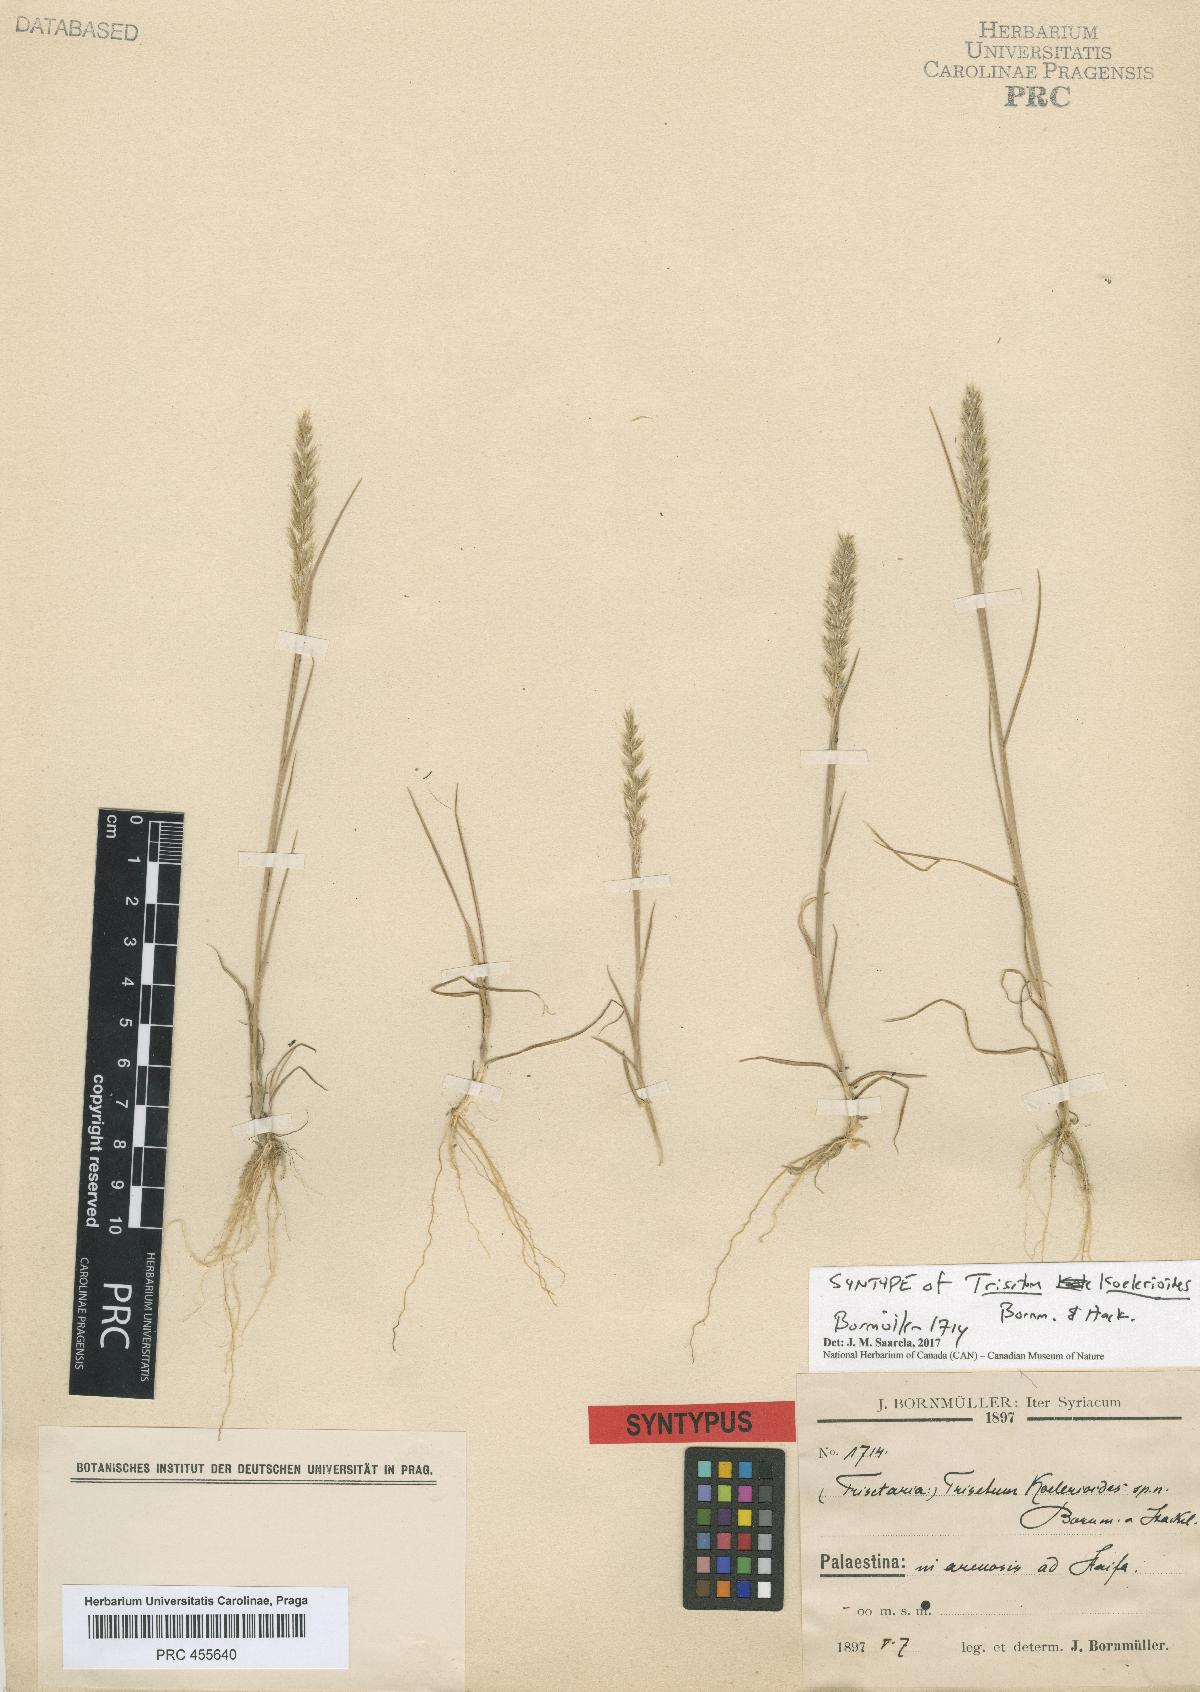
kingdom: Plantae
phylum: Tracheophyta
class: Liliopsida
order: Poales
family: Poaceae
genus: Trisetaria
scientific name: Trisetaria koelerioides
